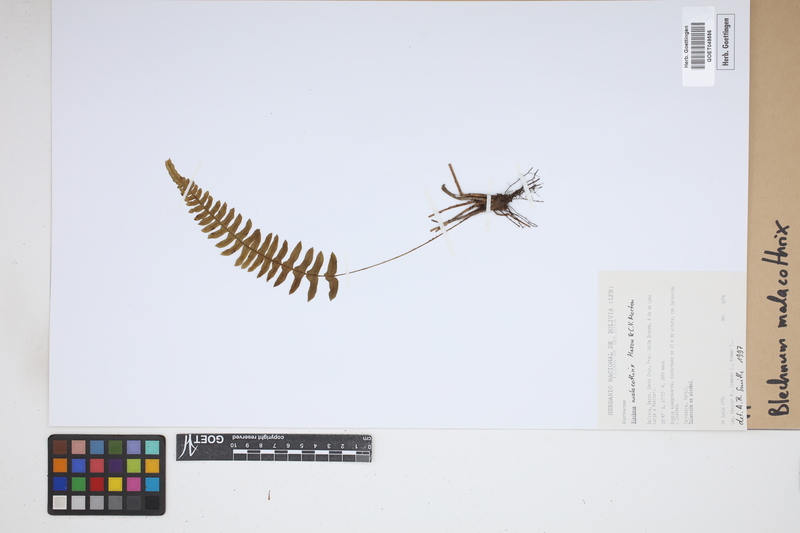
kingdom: Plantae
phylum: Tracheophyta
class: Polypodiopsida
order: Polypodiales
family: Blechnaceae
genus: Blechnum
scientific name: Blechnum malacothrix
